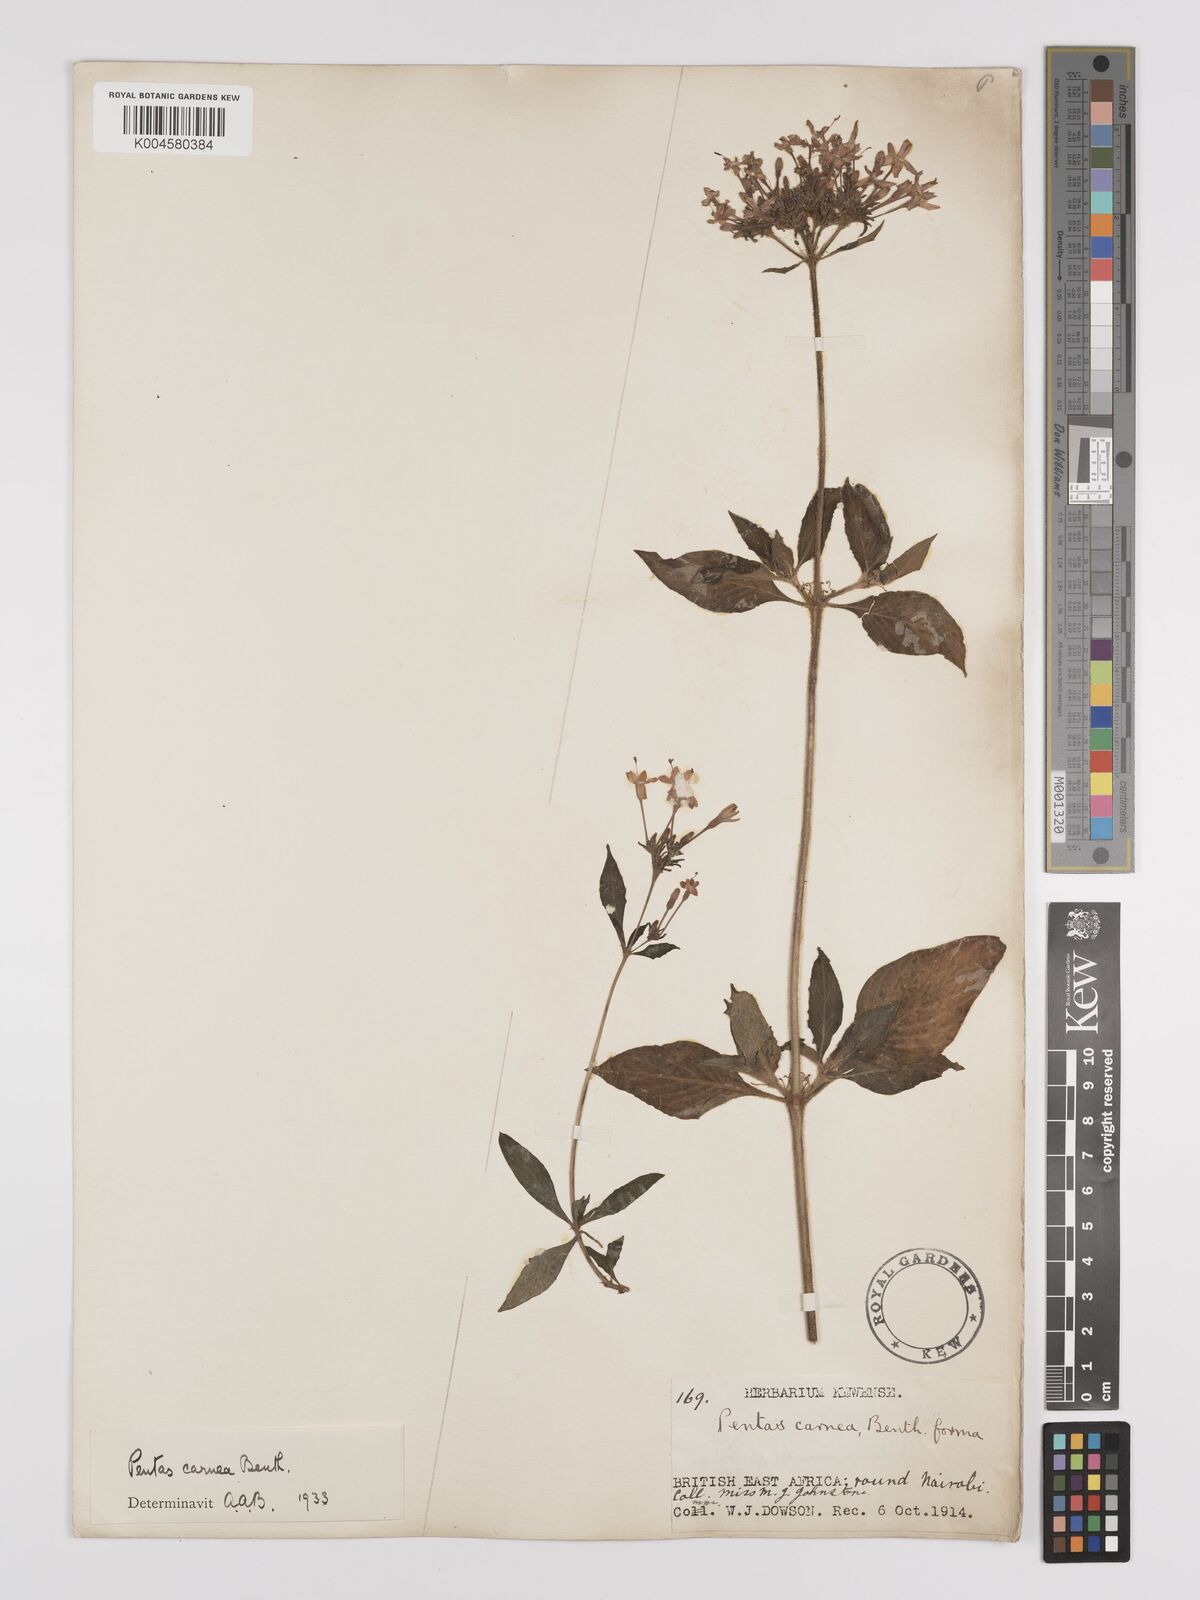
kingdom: Plantae
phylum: Tracheophyta
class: Magnoliopsida
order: Gentianales
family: Rubiaceae
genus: Pentas
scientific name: Pentas lanceolata
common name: Egyptian starcluster
